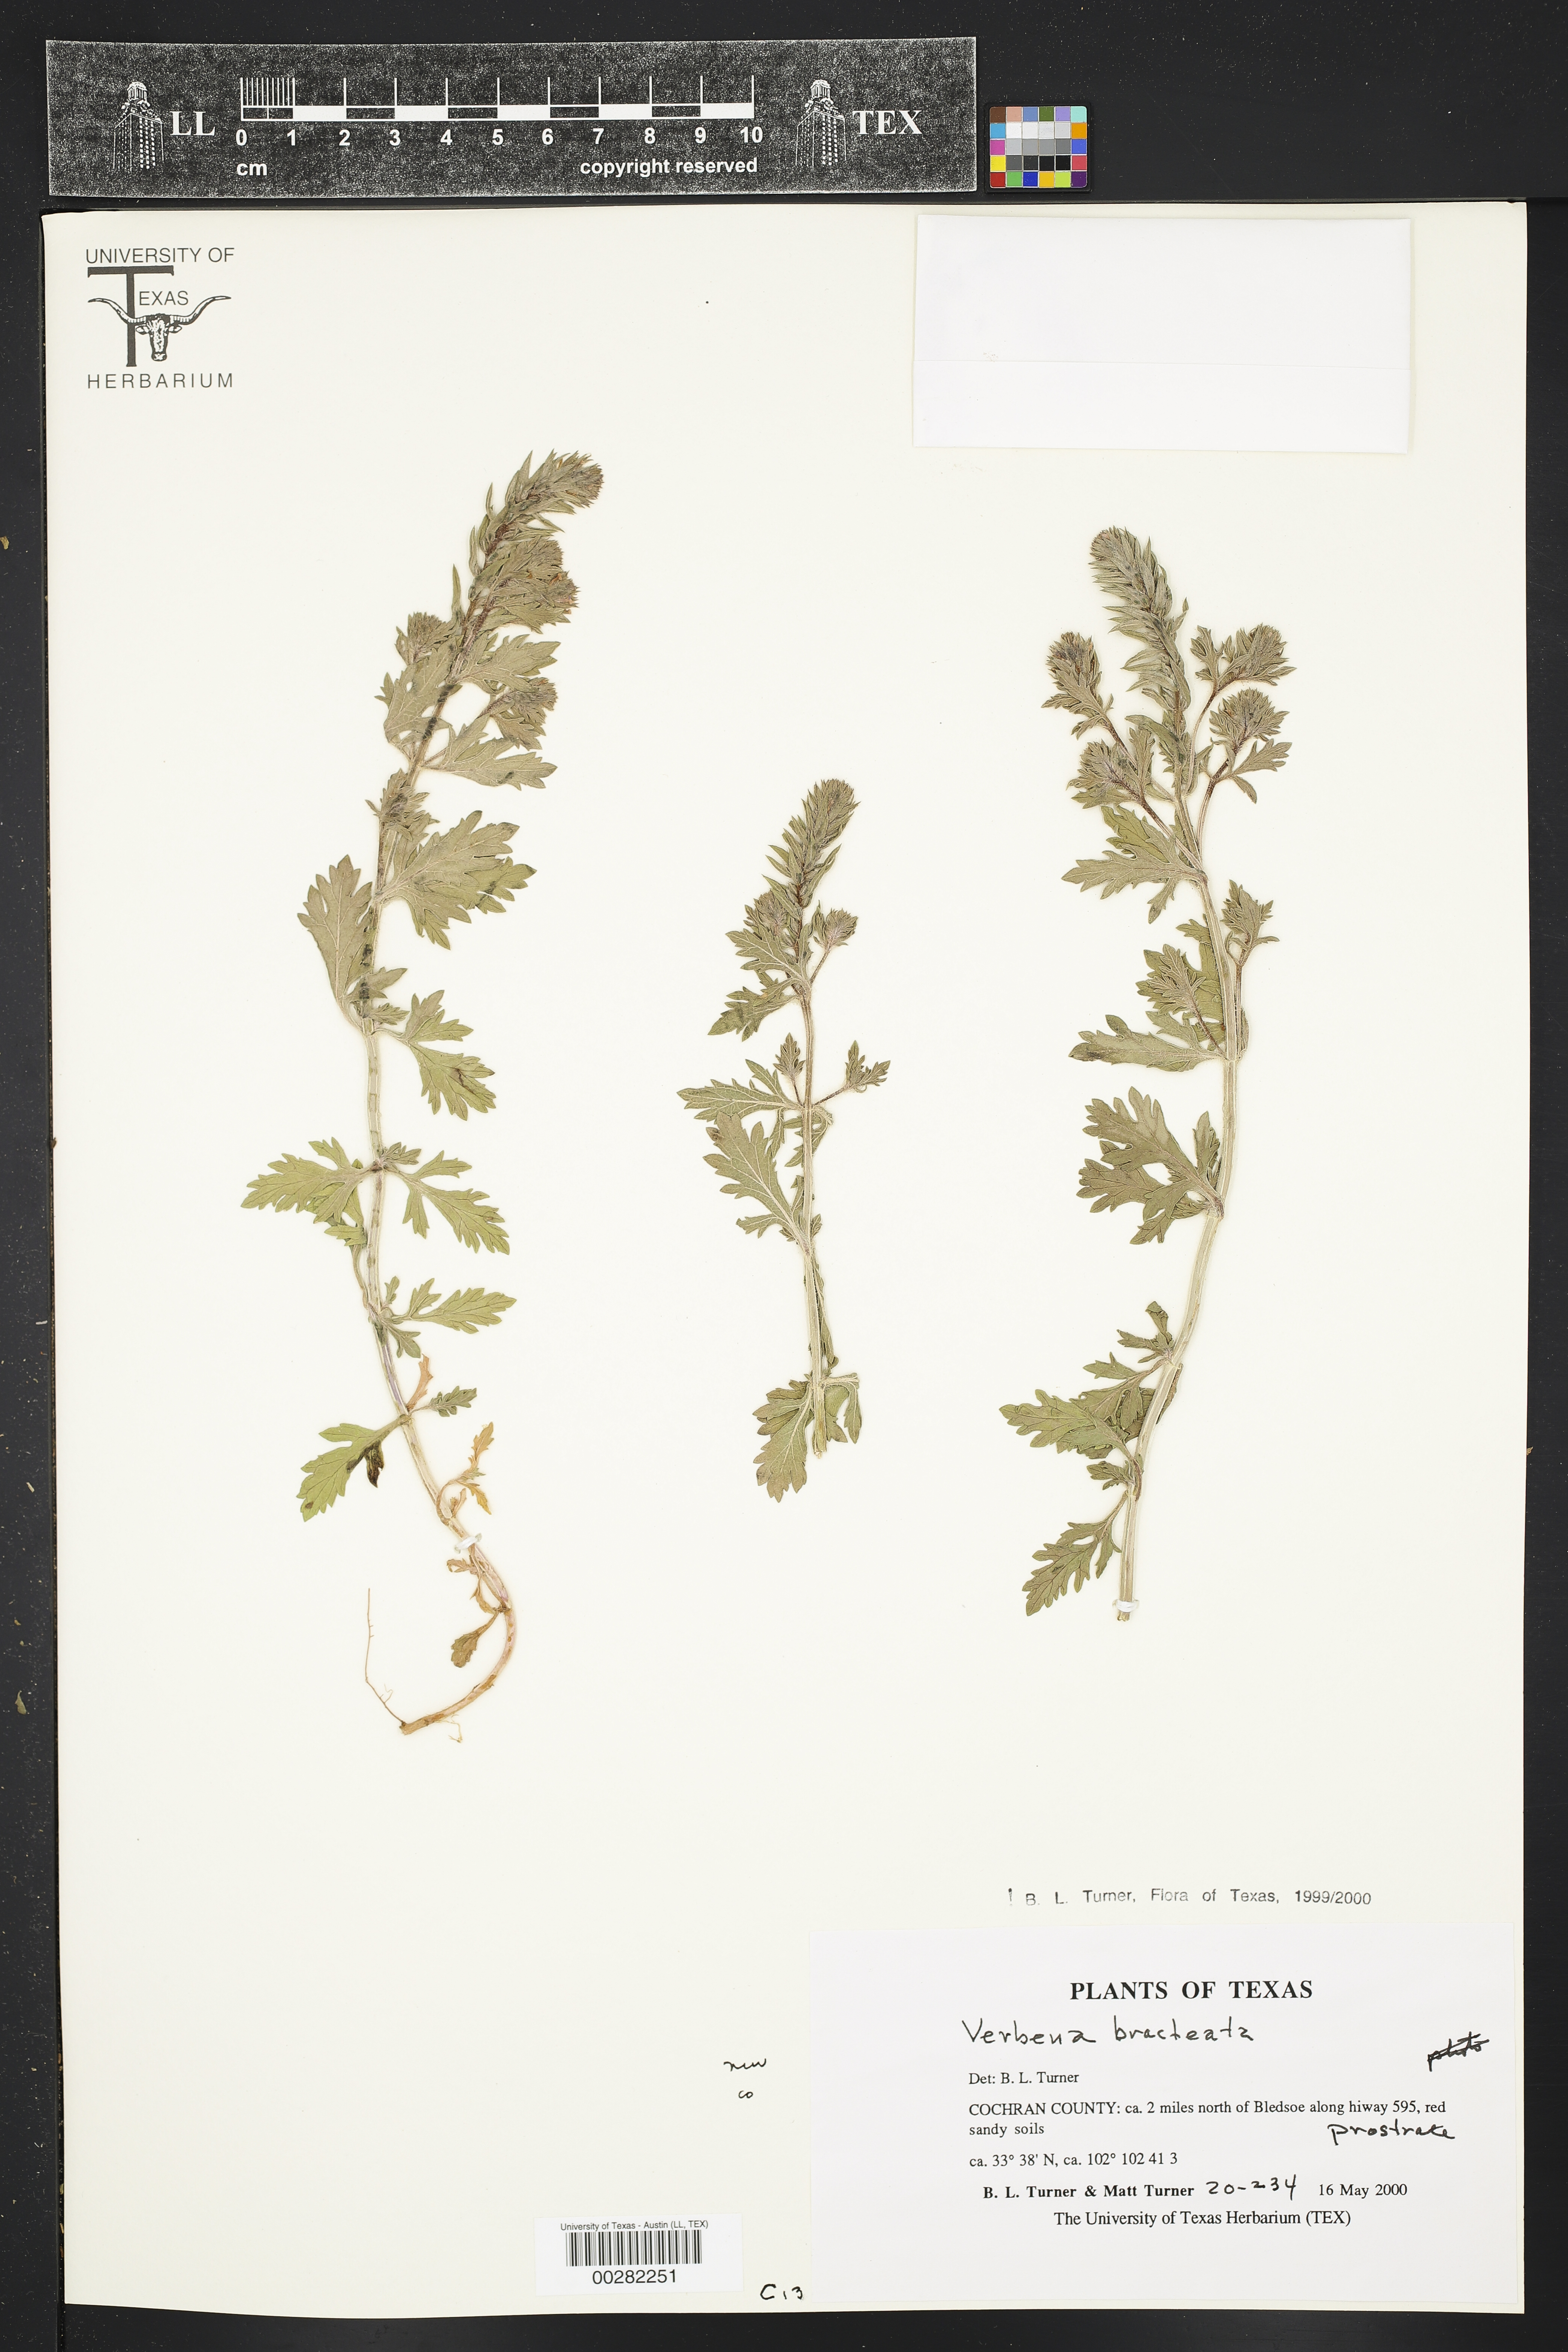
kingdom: Plantae
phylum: Tracheophyta
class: Magnoliopsida
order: Lamiales
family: Verbenaceae
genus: Verbena
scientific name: Verbena bracteata
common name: Bracted vervain
